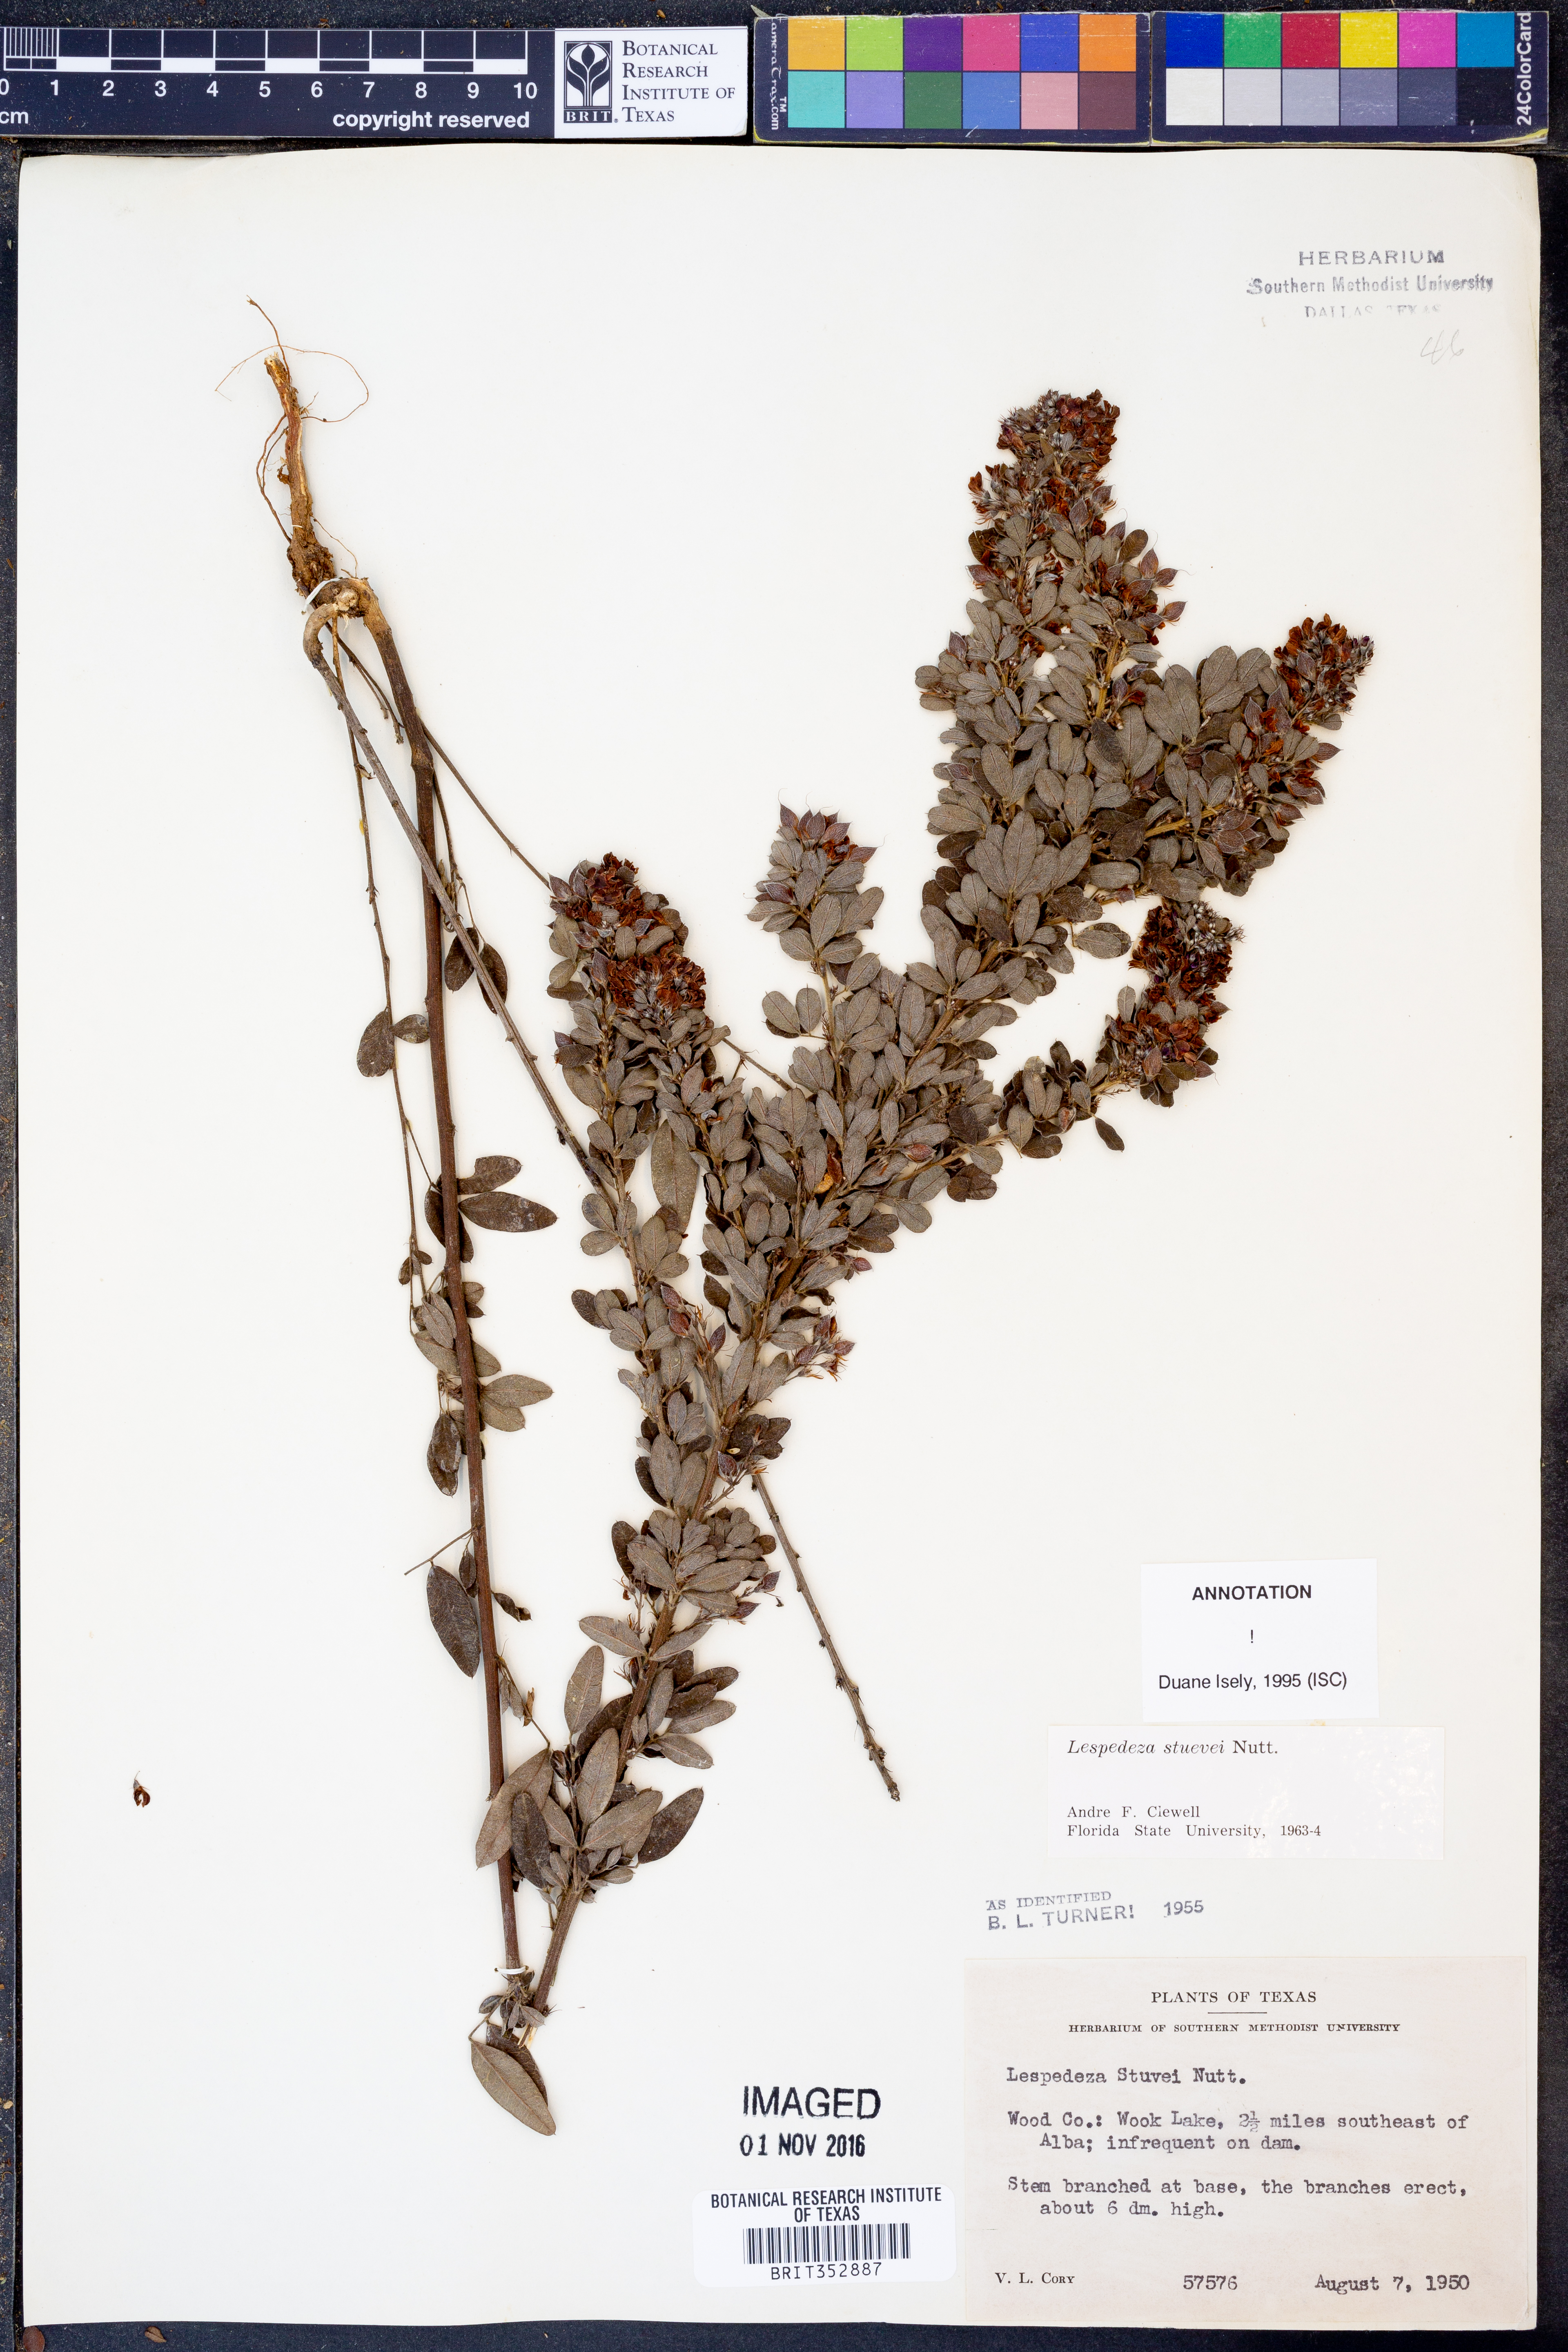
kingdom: Plantae
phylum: Tracheophyta
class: Magnoliopsida
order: Fabales
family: Fabaceae
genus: Lespedeza
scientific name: Lespedeza stuevei
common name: Tall bush-clover
